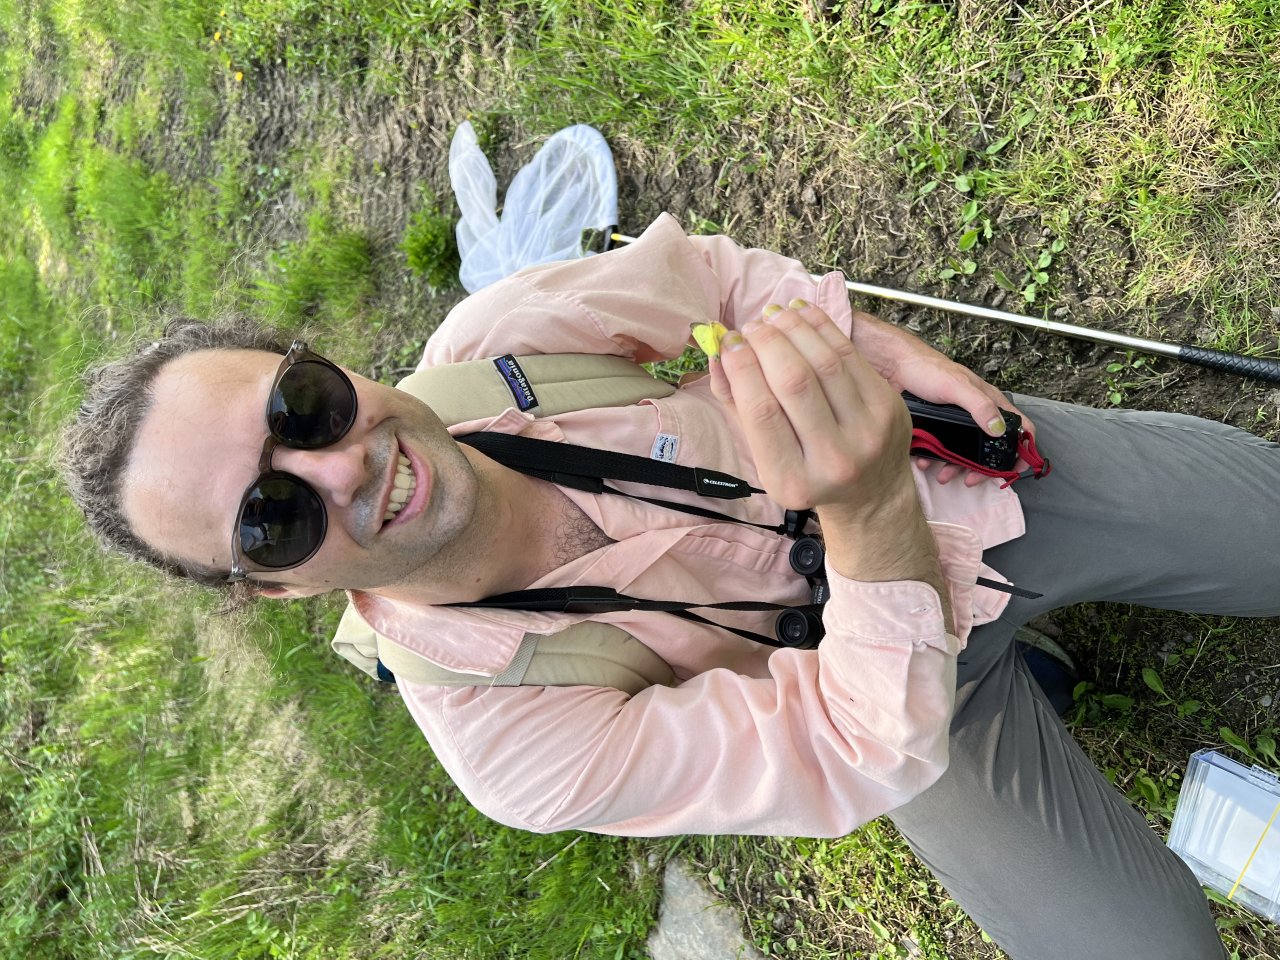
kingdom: Animalia
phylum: Arthropoda
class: Insecta
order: Lepidoptera
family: Pieridae
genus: Colias
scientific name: Colias philodice
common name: Clouded Sulphur
